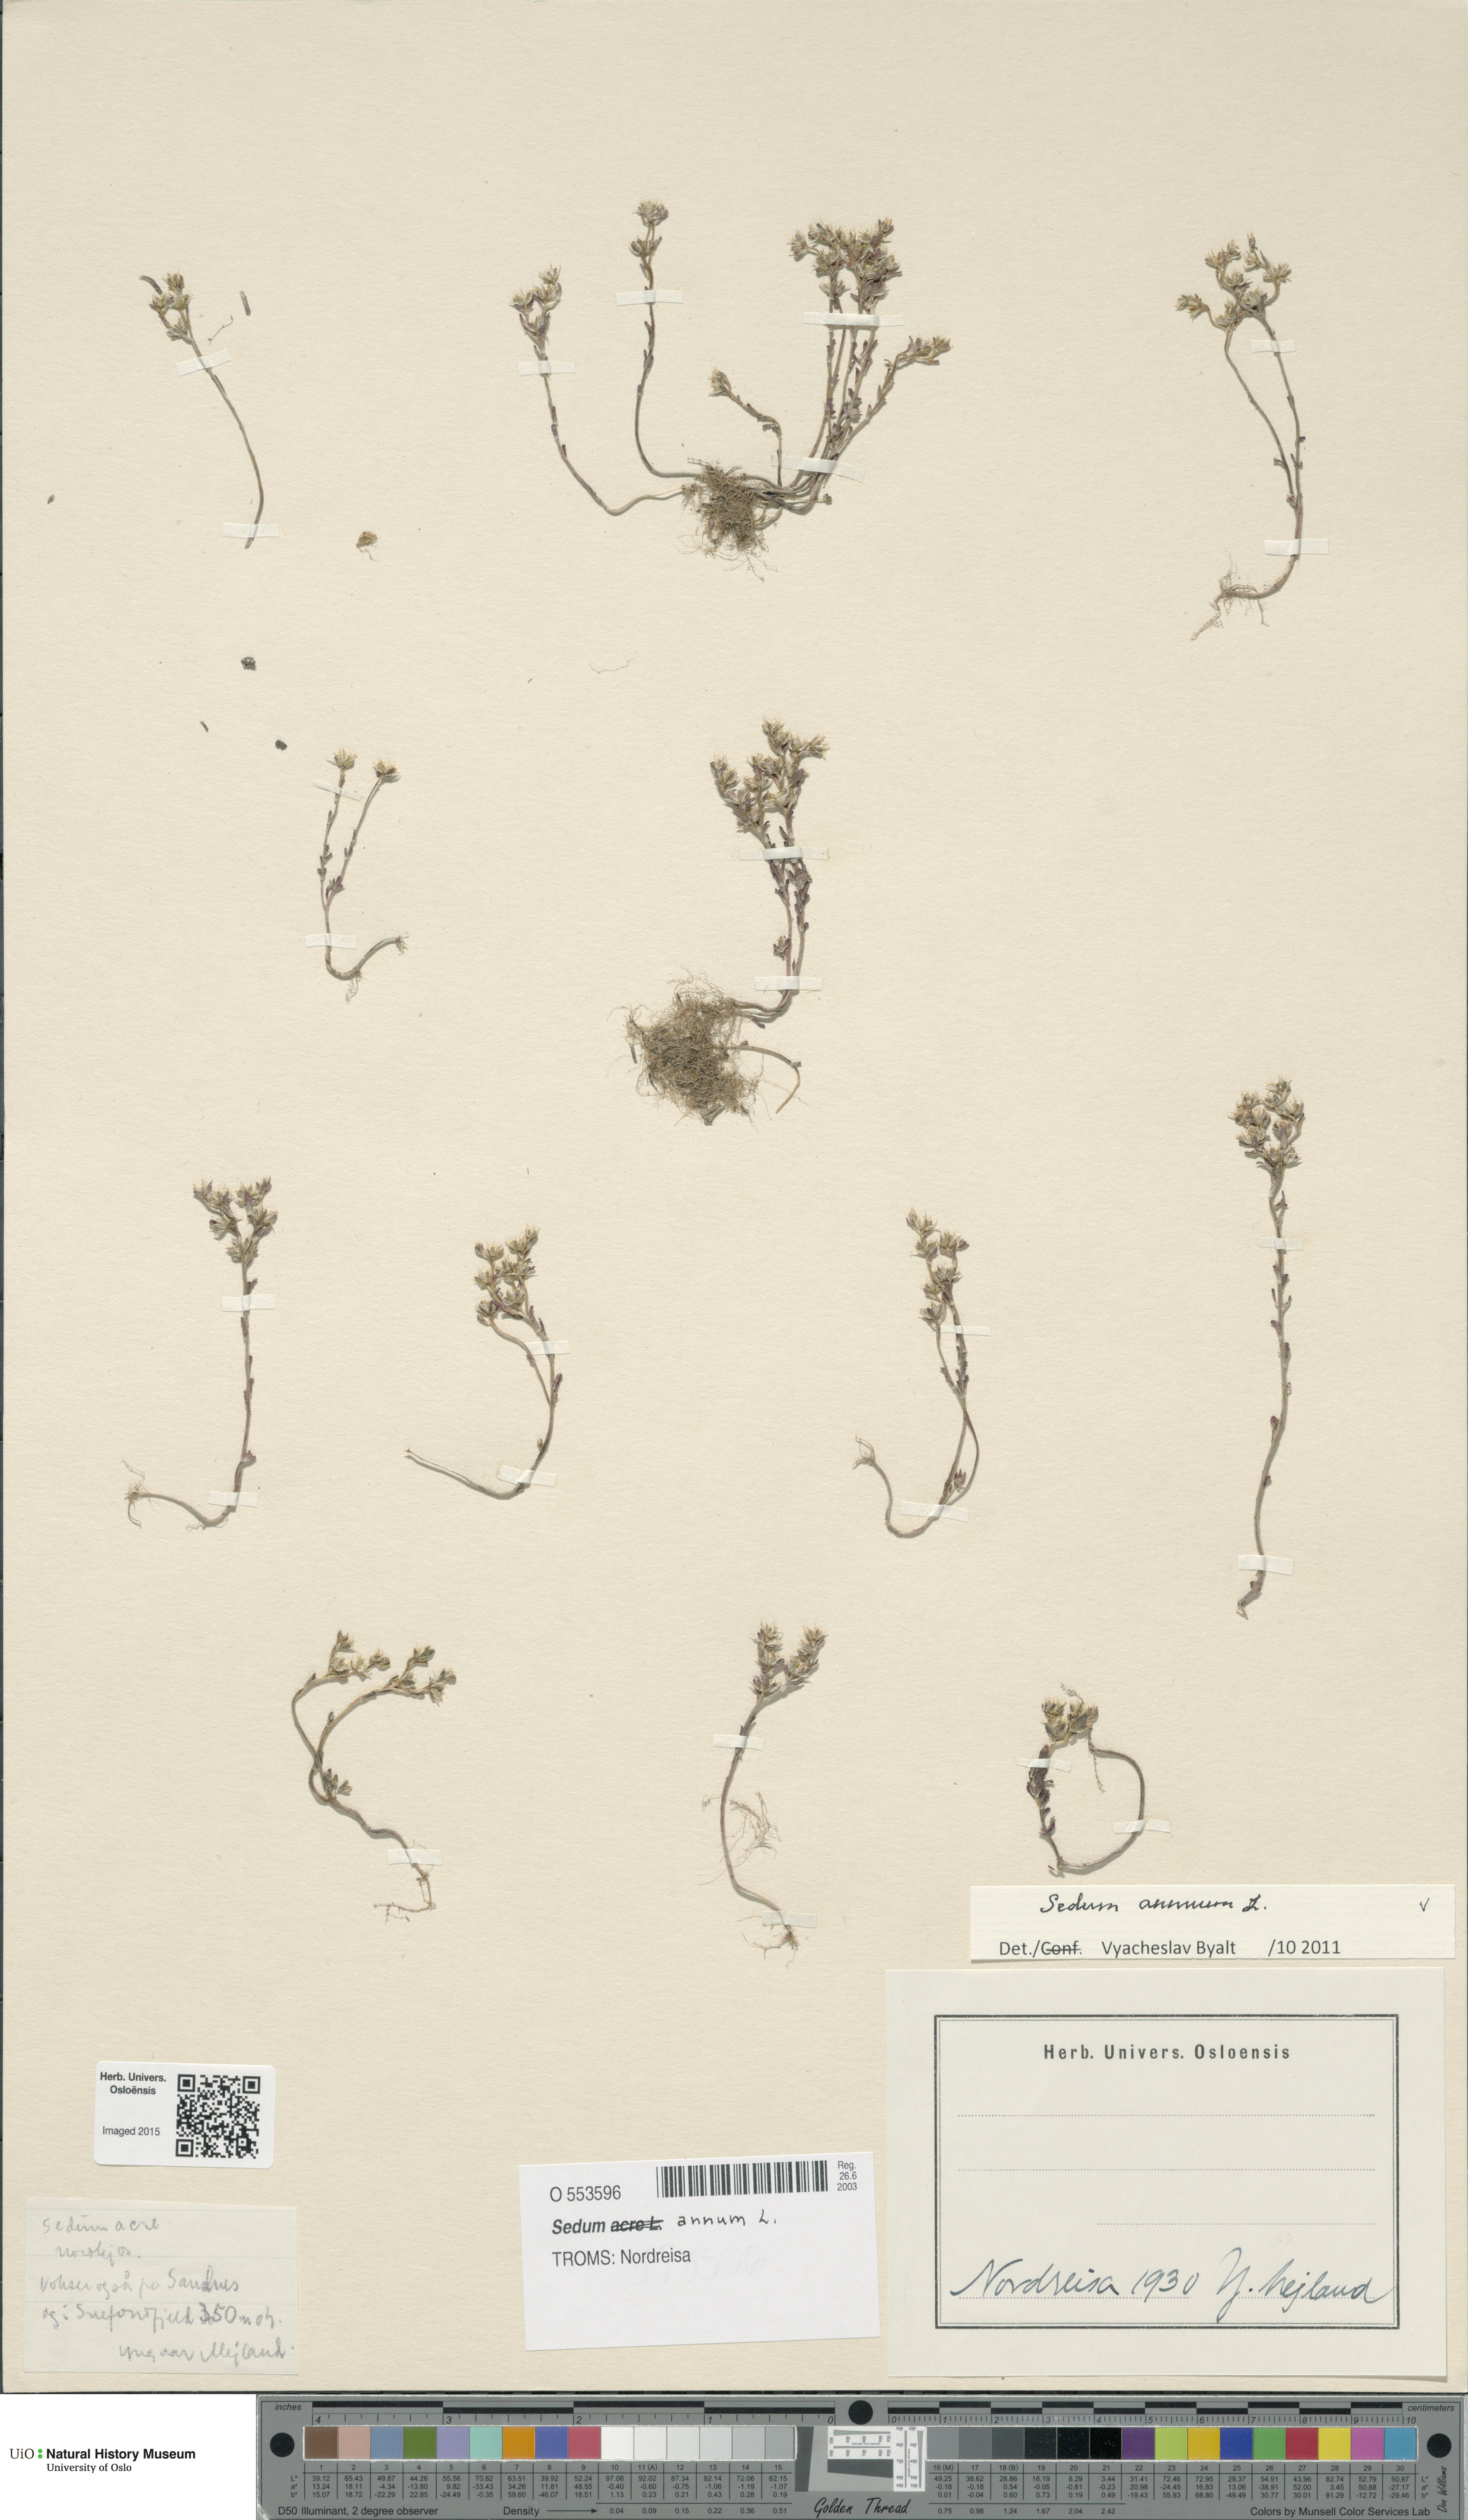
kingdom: Plantae
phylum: Tracheophyta
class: Magnoliopsida
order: Saxifragales
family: Crassulaceae
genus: Sedum
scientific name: Sedum annuum
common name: Annual stonecrop
